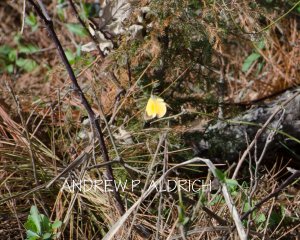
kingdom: Animalia
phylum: Arthropoda
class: Insecta
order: Lepidoptera
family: Pieridae
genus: Colias
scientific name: Colias eurytheme
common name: Orange Sulphur
